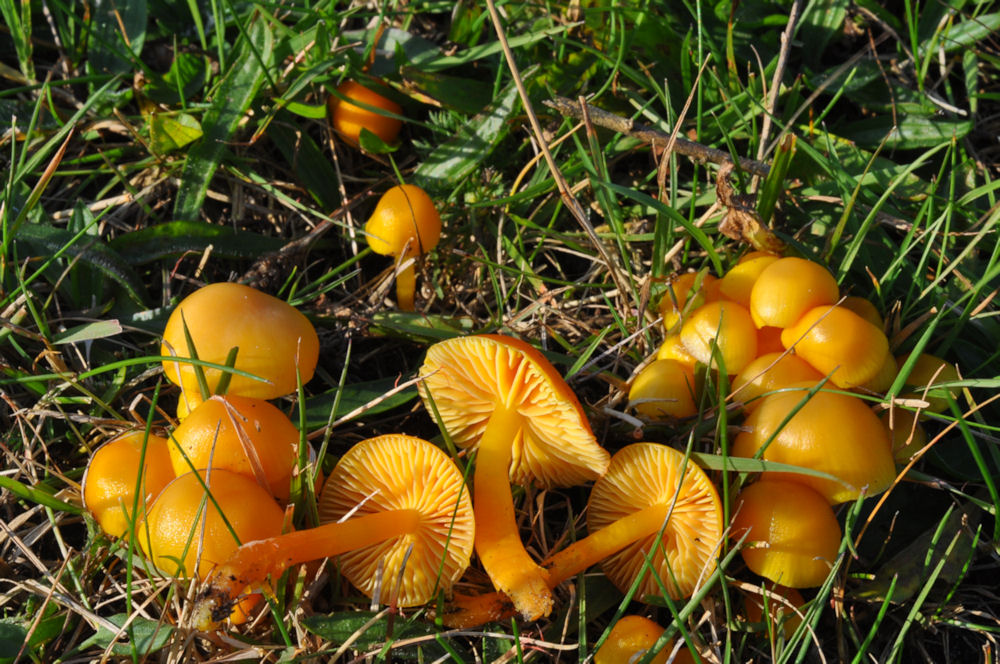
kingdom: Fungi
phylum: Basidiomycota
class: Agaricomycetes
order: Agaricales
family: Hygrophoraceae
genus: Hygrocybe
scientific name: Hygrocybe chlorophana
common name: gul vokshat
